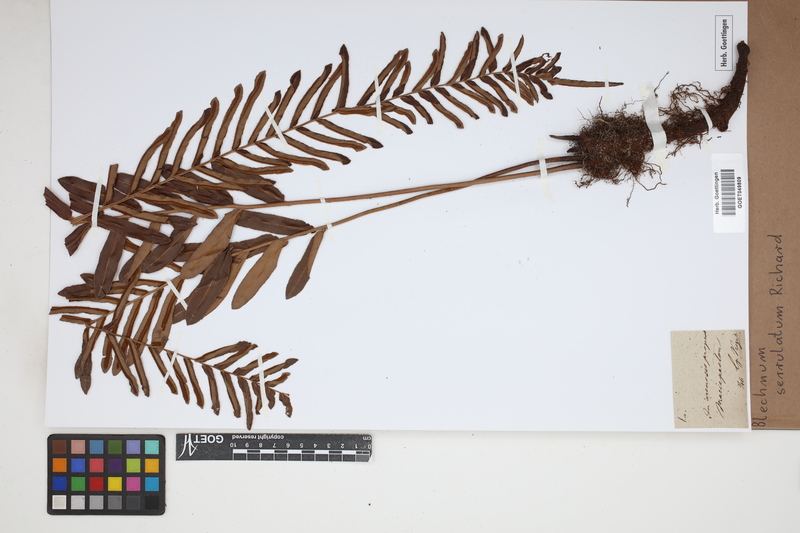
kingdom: Plantae
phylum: Tracheophyta
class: Polypodiopsida
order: Polypodiales
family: Blechnaceae
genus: Telmatoblechnum
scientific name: Telmatoblechnum serrulatum
